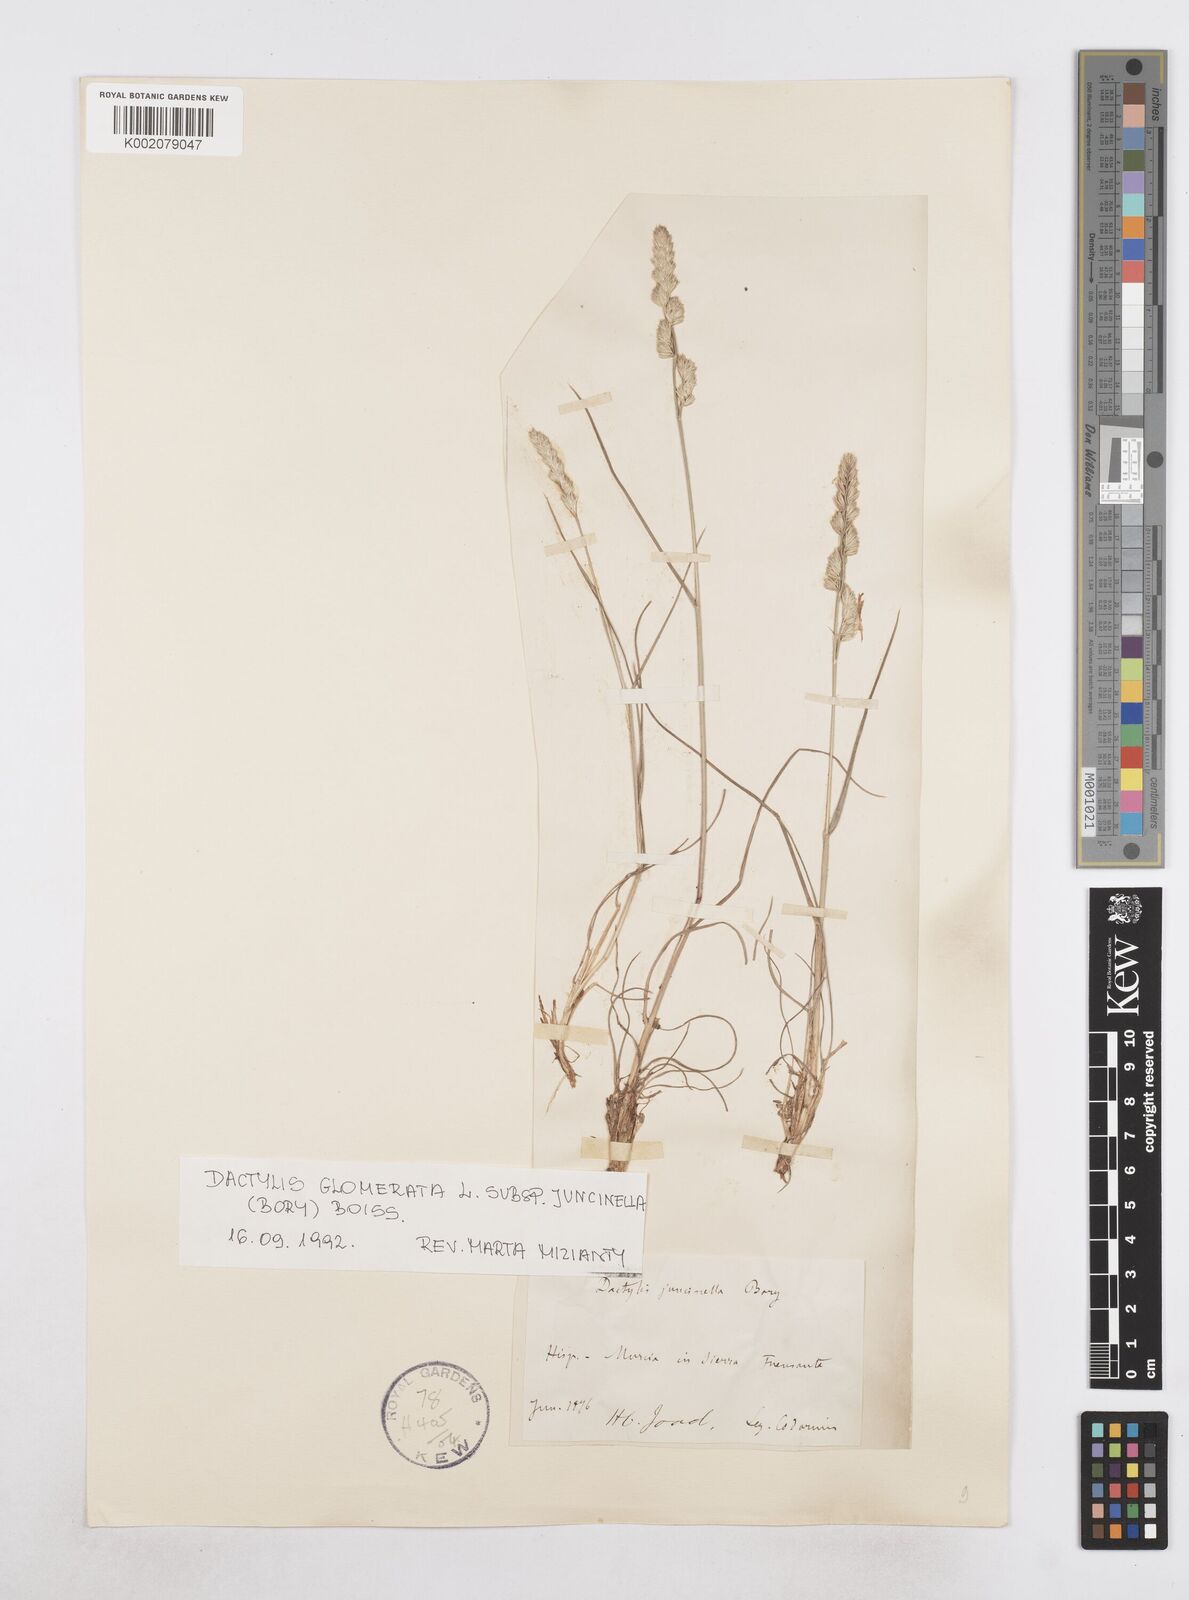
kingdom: Plantae
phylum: Tracheophyta
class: Liliopsida
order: Poales
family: Poaceae
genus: Dactylis
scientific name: Dactylis glomerata
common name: Orchardgrass
